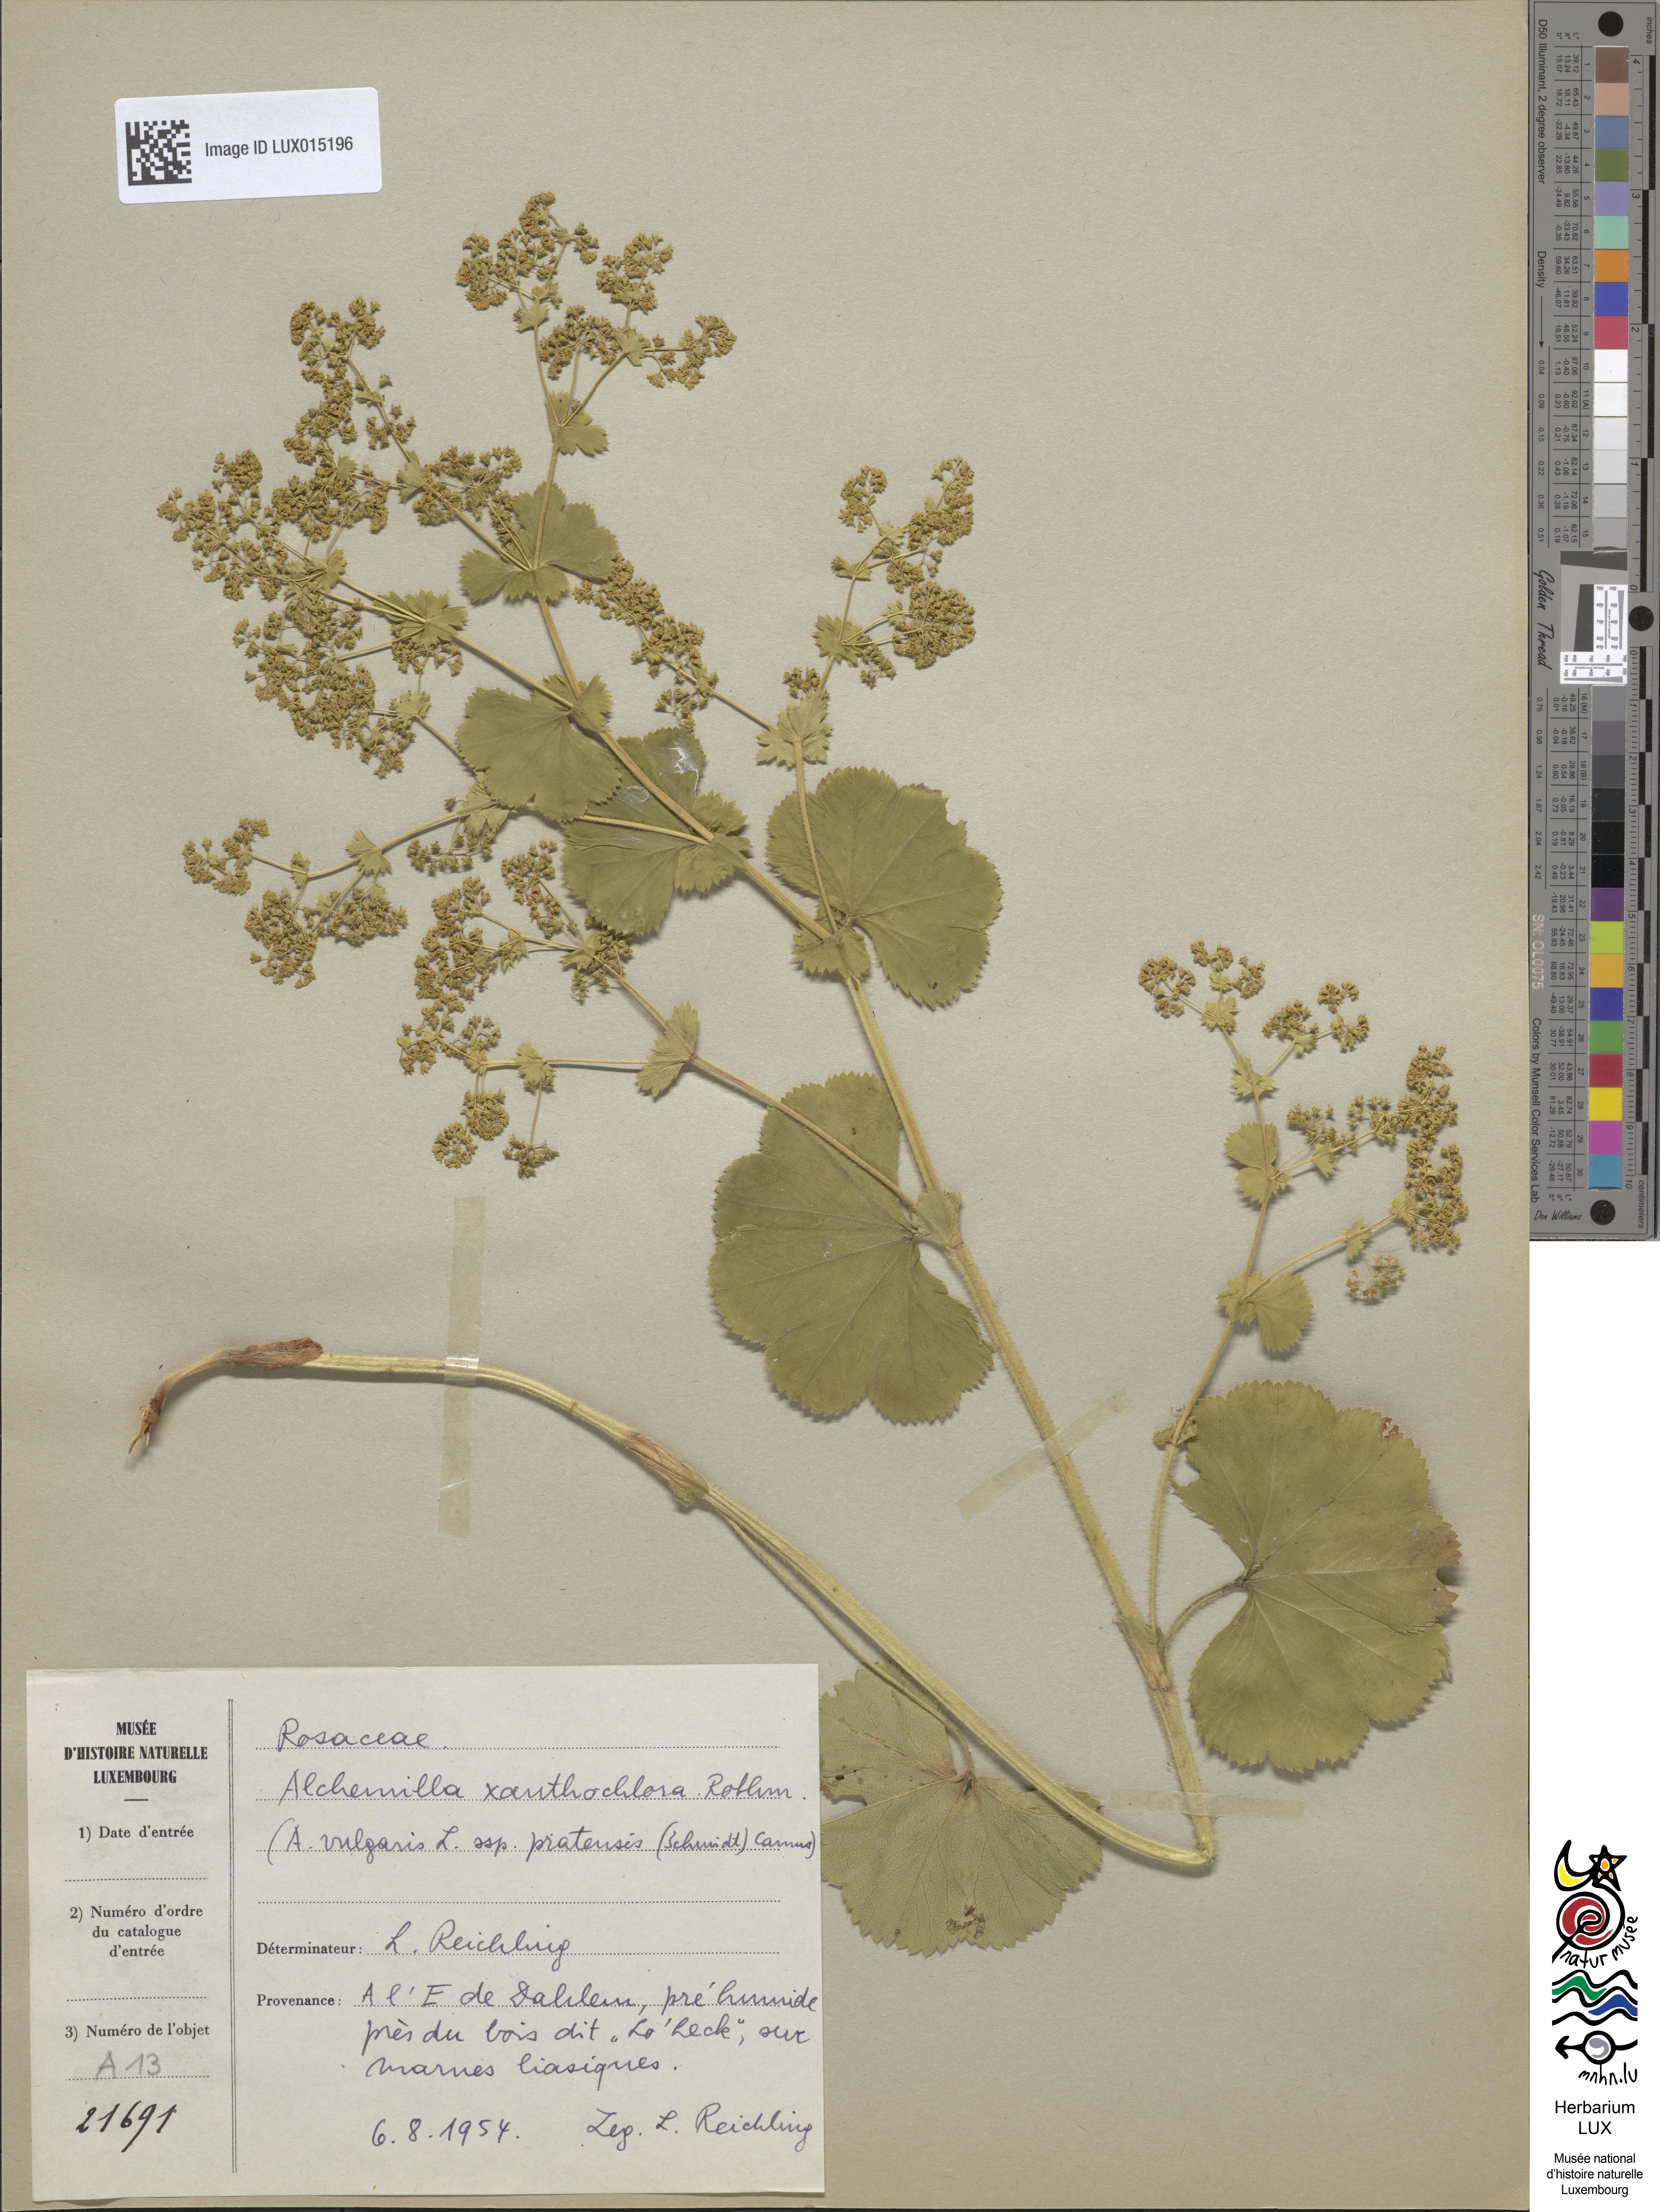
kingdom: Plantae
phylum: Tracheophyta
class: Magnoliopsida
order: Rosales
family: Rosaceae
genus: Alchemilla
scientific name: Alchemilla xanthochlora
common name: Intermediate lady's-mantle
